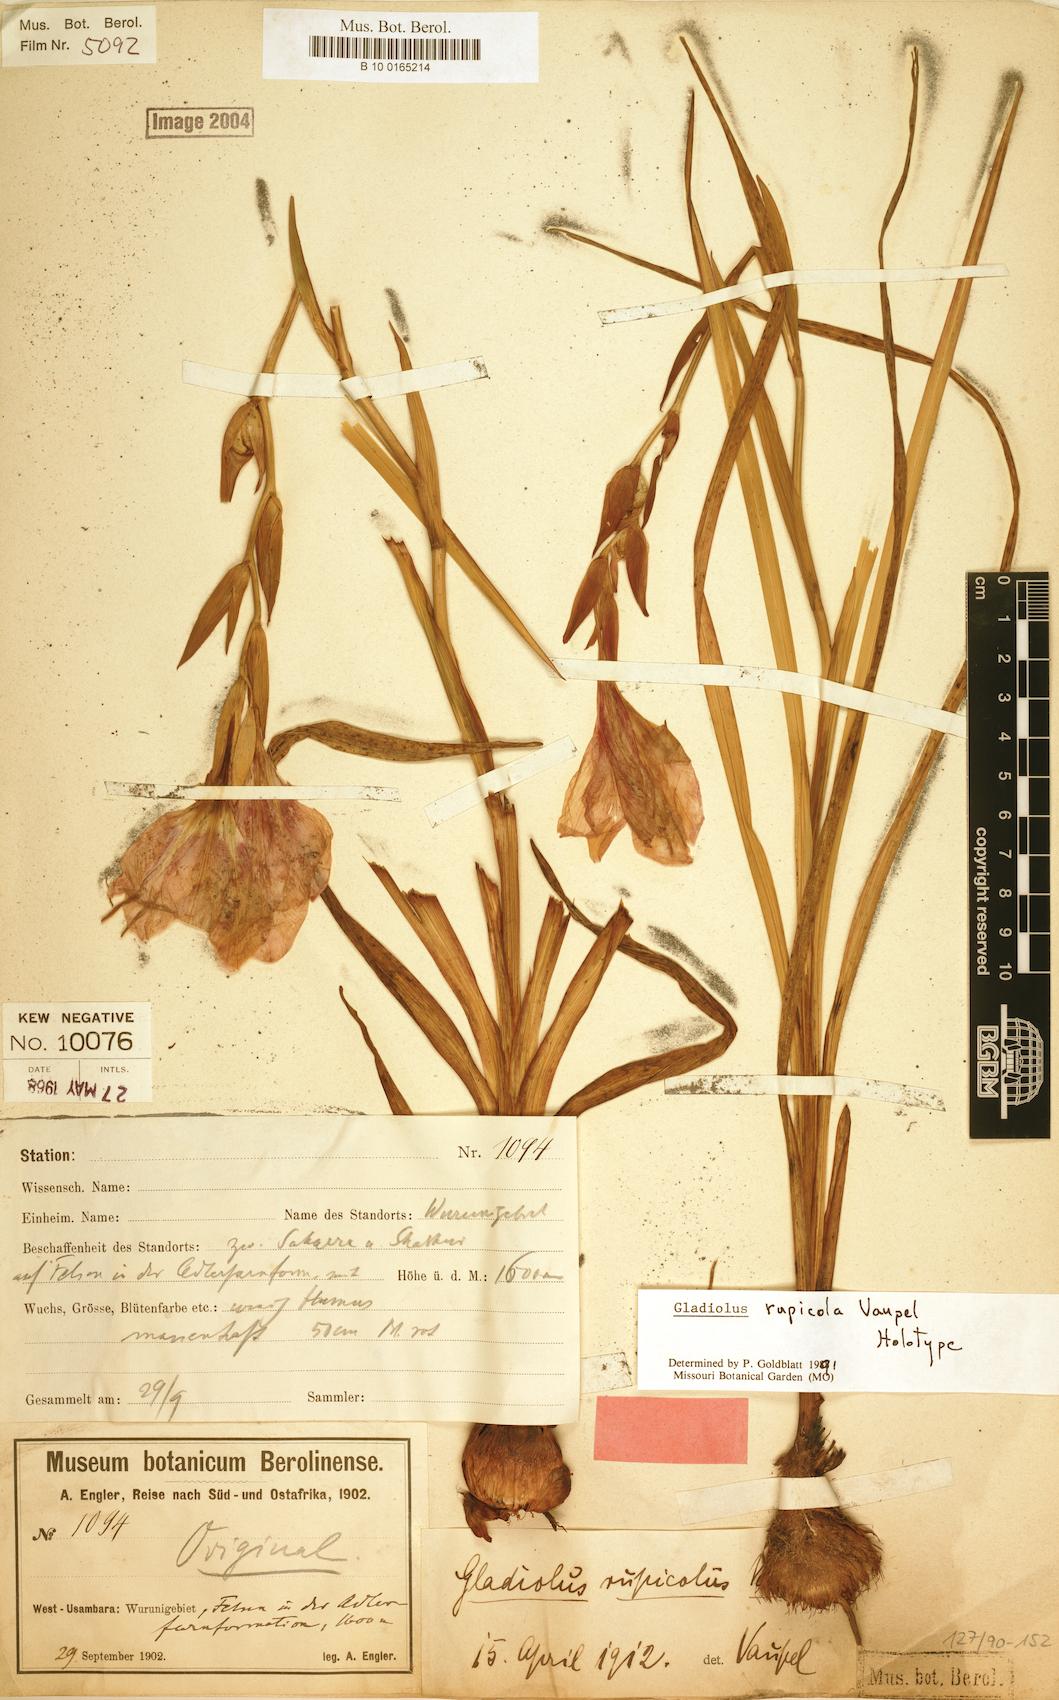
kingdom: Plantae
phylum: Tracheophyta
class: Liliopsida
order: Asparagales
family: Iridaceae
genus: Gladiolus
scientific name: Gladiolus rupicola
